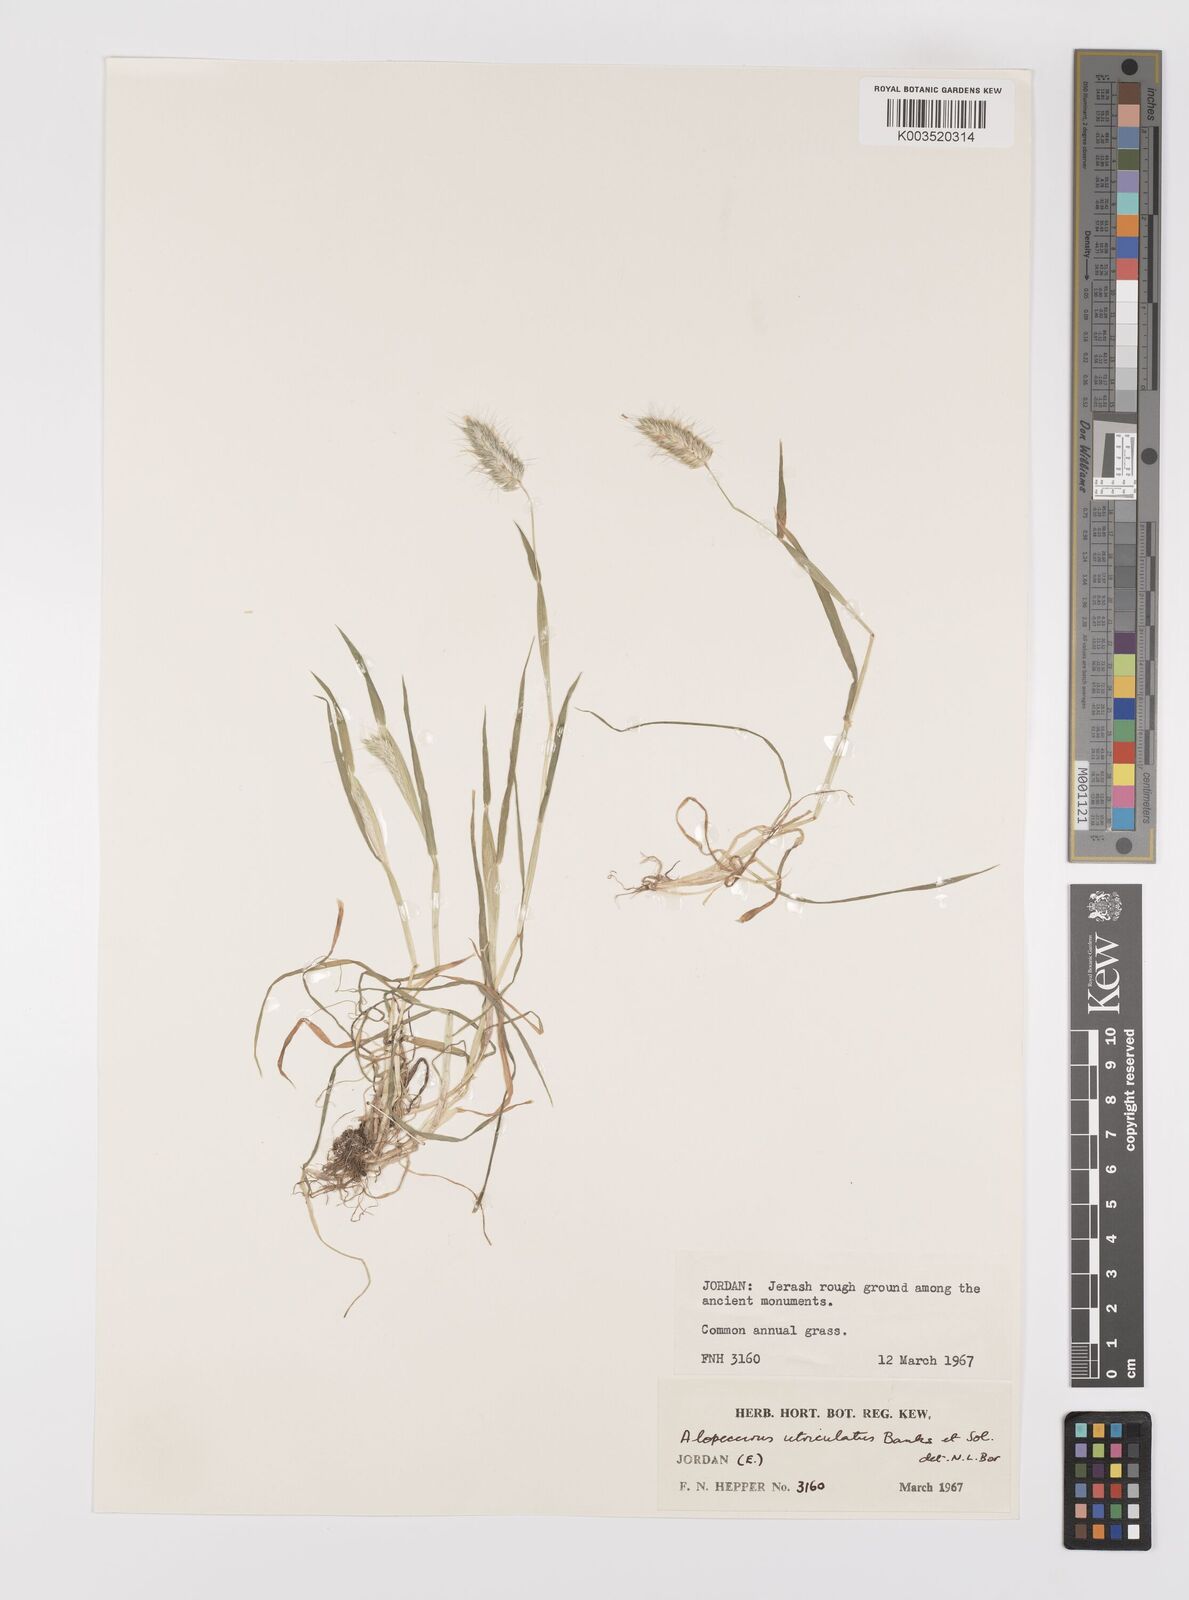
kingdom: Plantae
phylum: Tracheophyta
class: Liliopsida
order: Poales
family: Poaceae
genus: Alopecurus
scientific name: Alopecurus utriculatus
